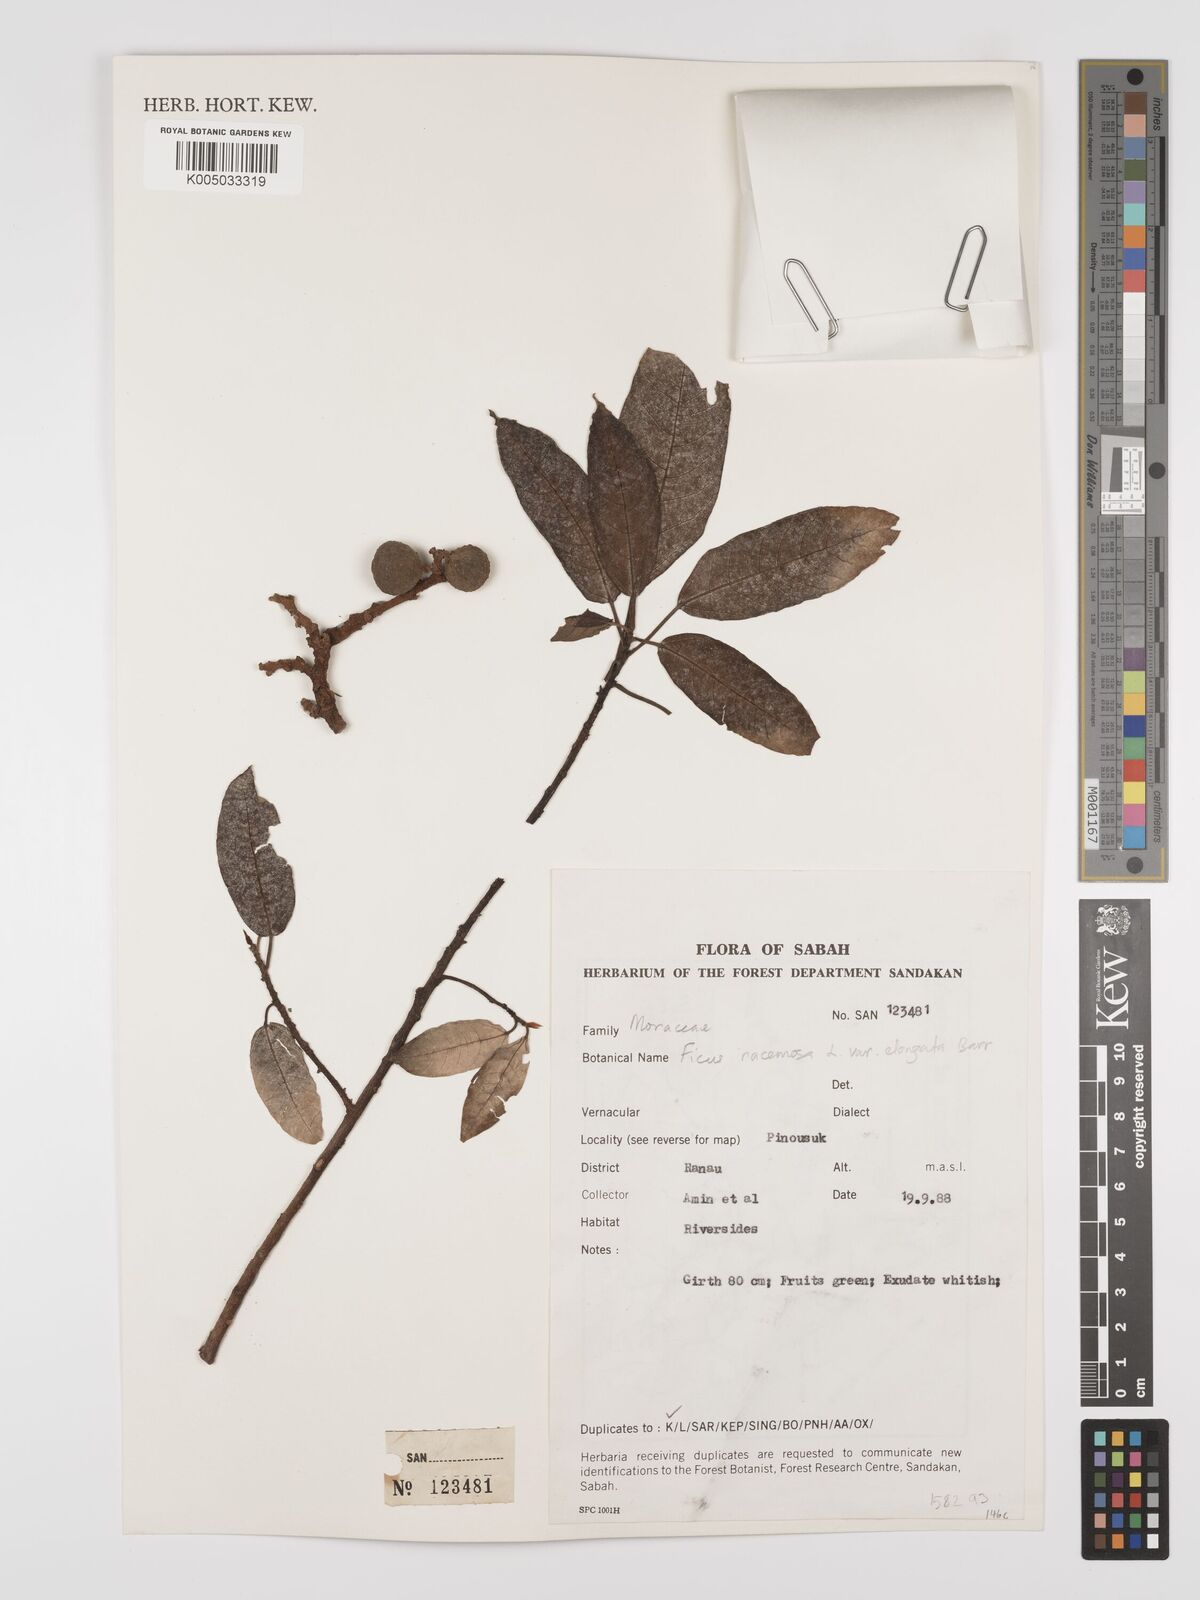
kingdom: Plantae
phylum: Tracheophyta
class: Magnoliopsida
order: Rosales
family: Moraceae
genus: Ficus
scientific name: Ficus
